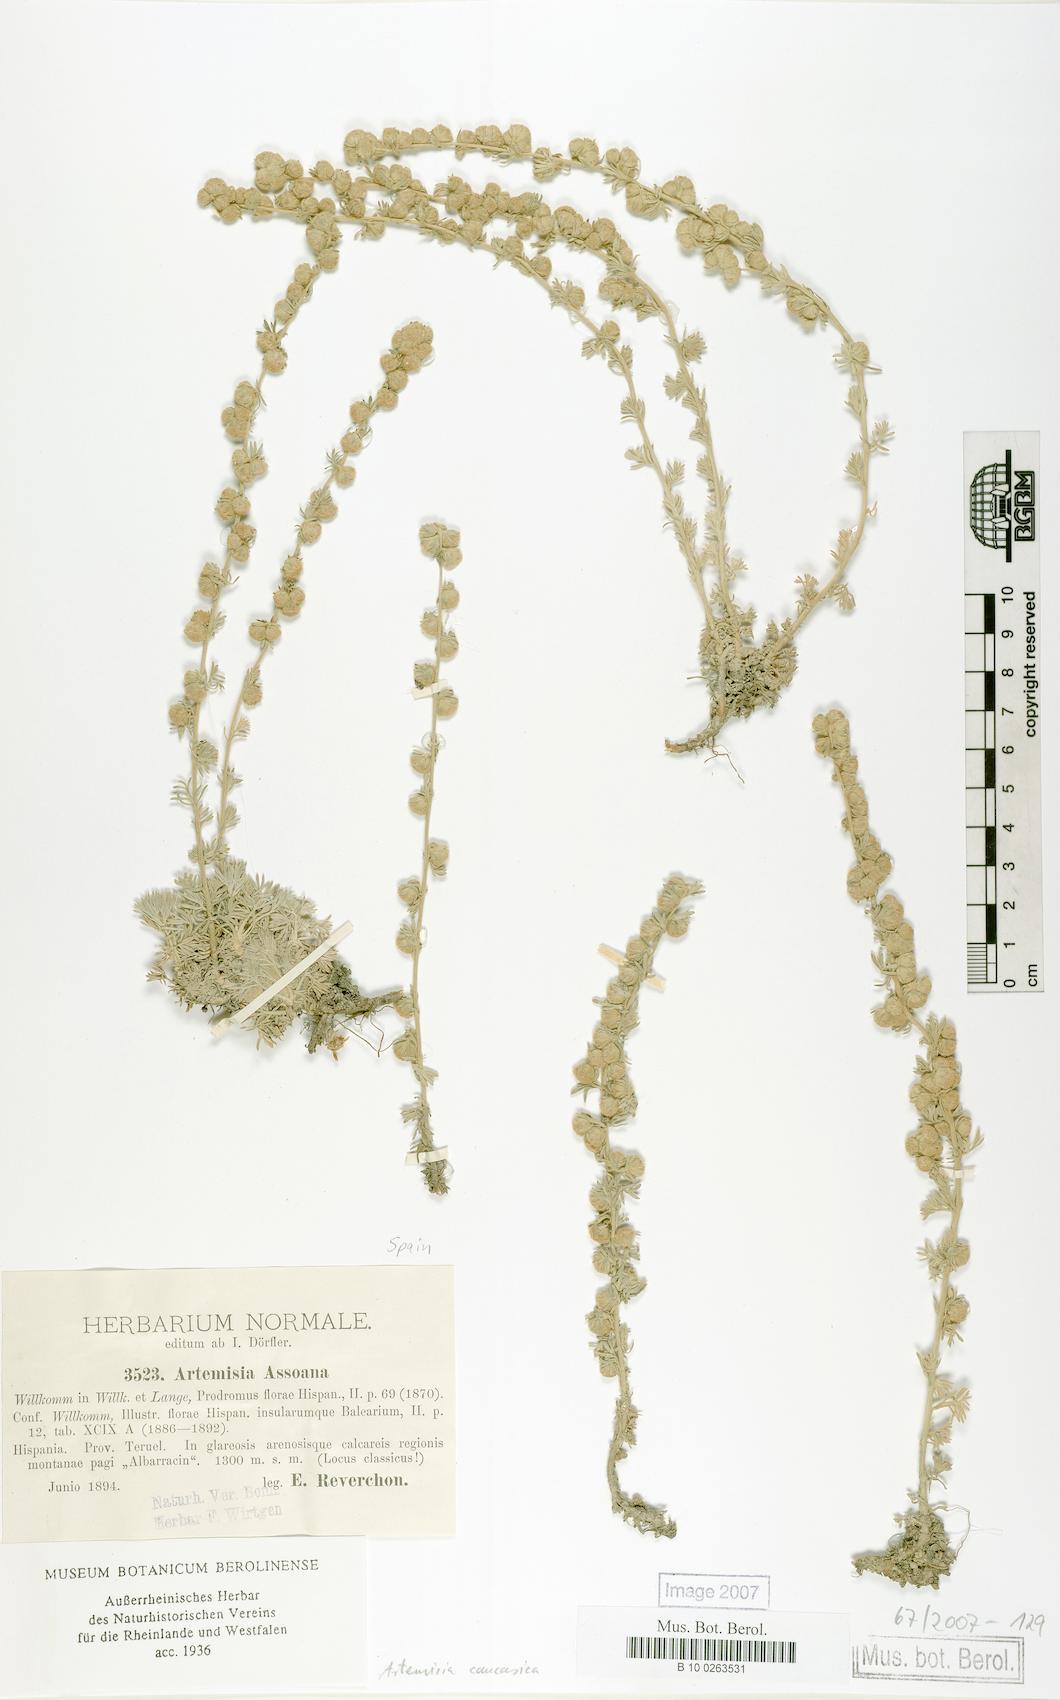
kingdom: Plantae
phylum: Tracheophyta
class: Magnoliopsida
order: Asterales
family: Asteraceae
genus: Artemisia
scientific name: Artemisia alpina
